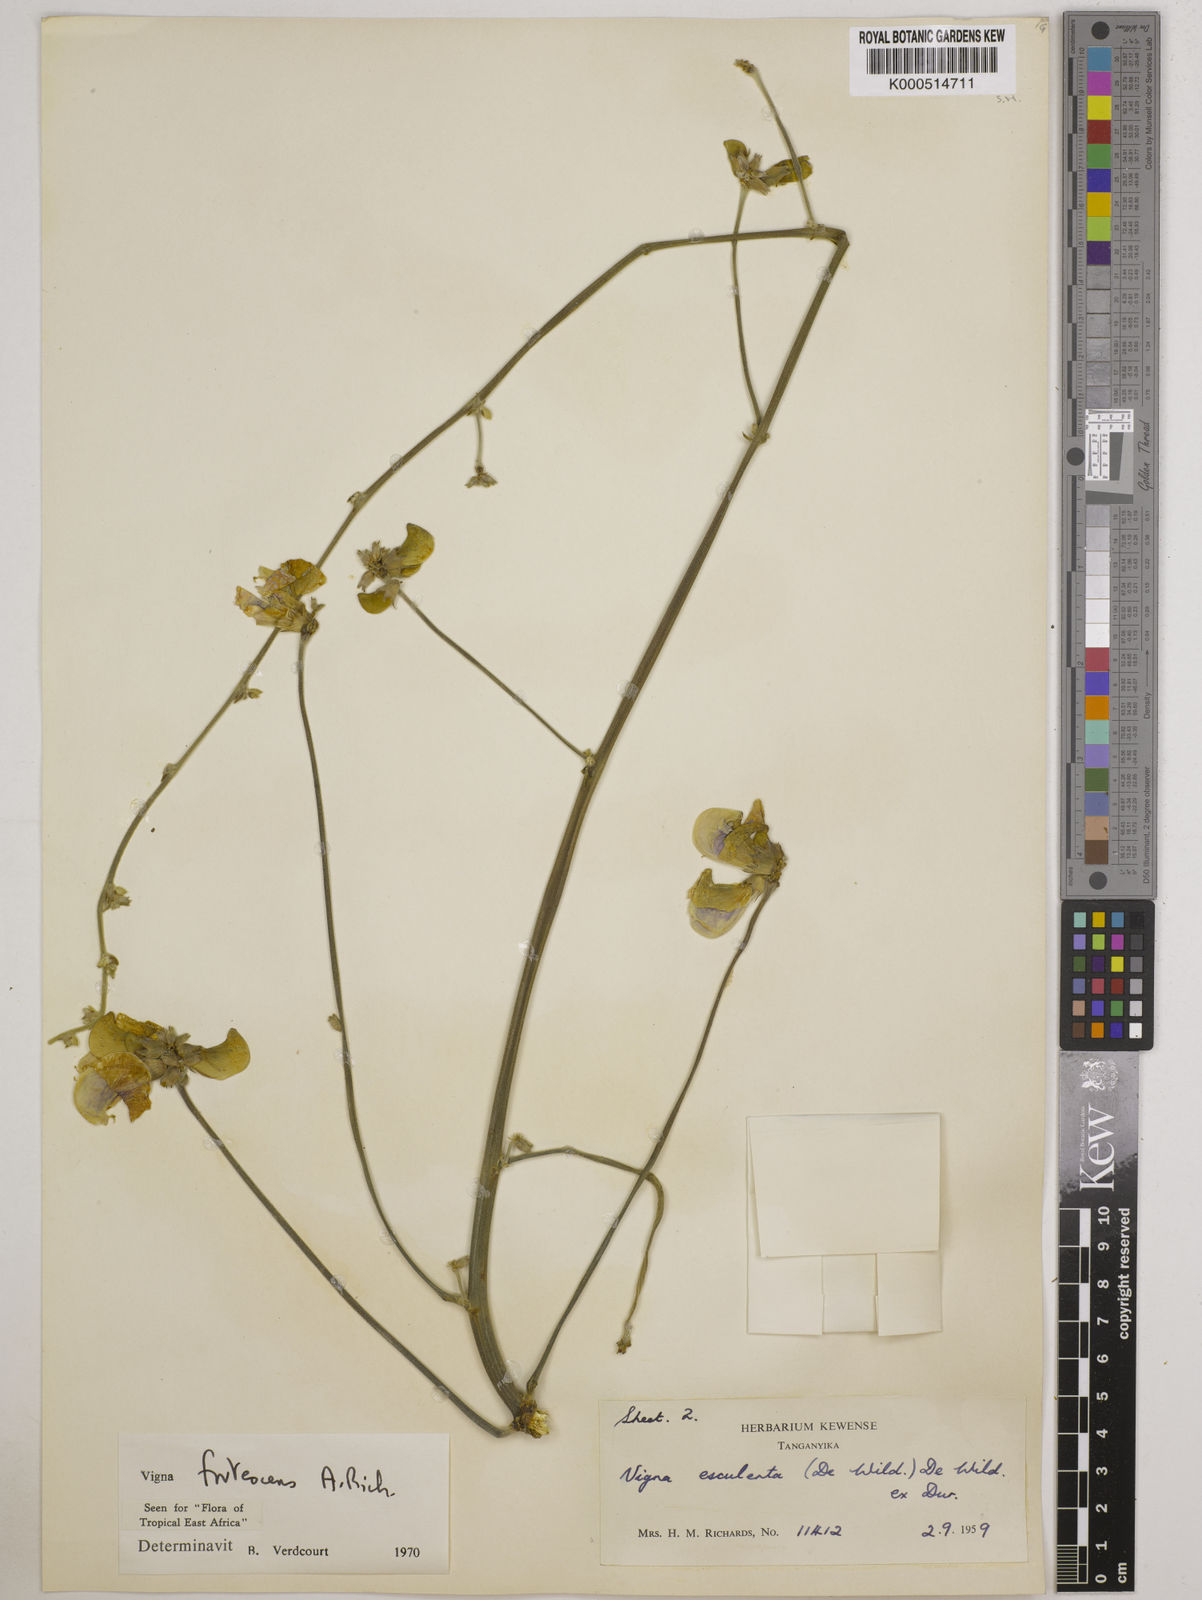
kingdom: Plantae
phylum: Tracheophyta
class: Magnoliopsida
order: Fabales
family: Fabaceae
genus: Vigna
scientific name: Vigna frutescens
